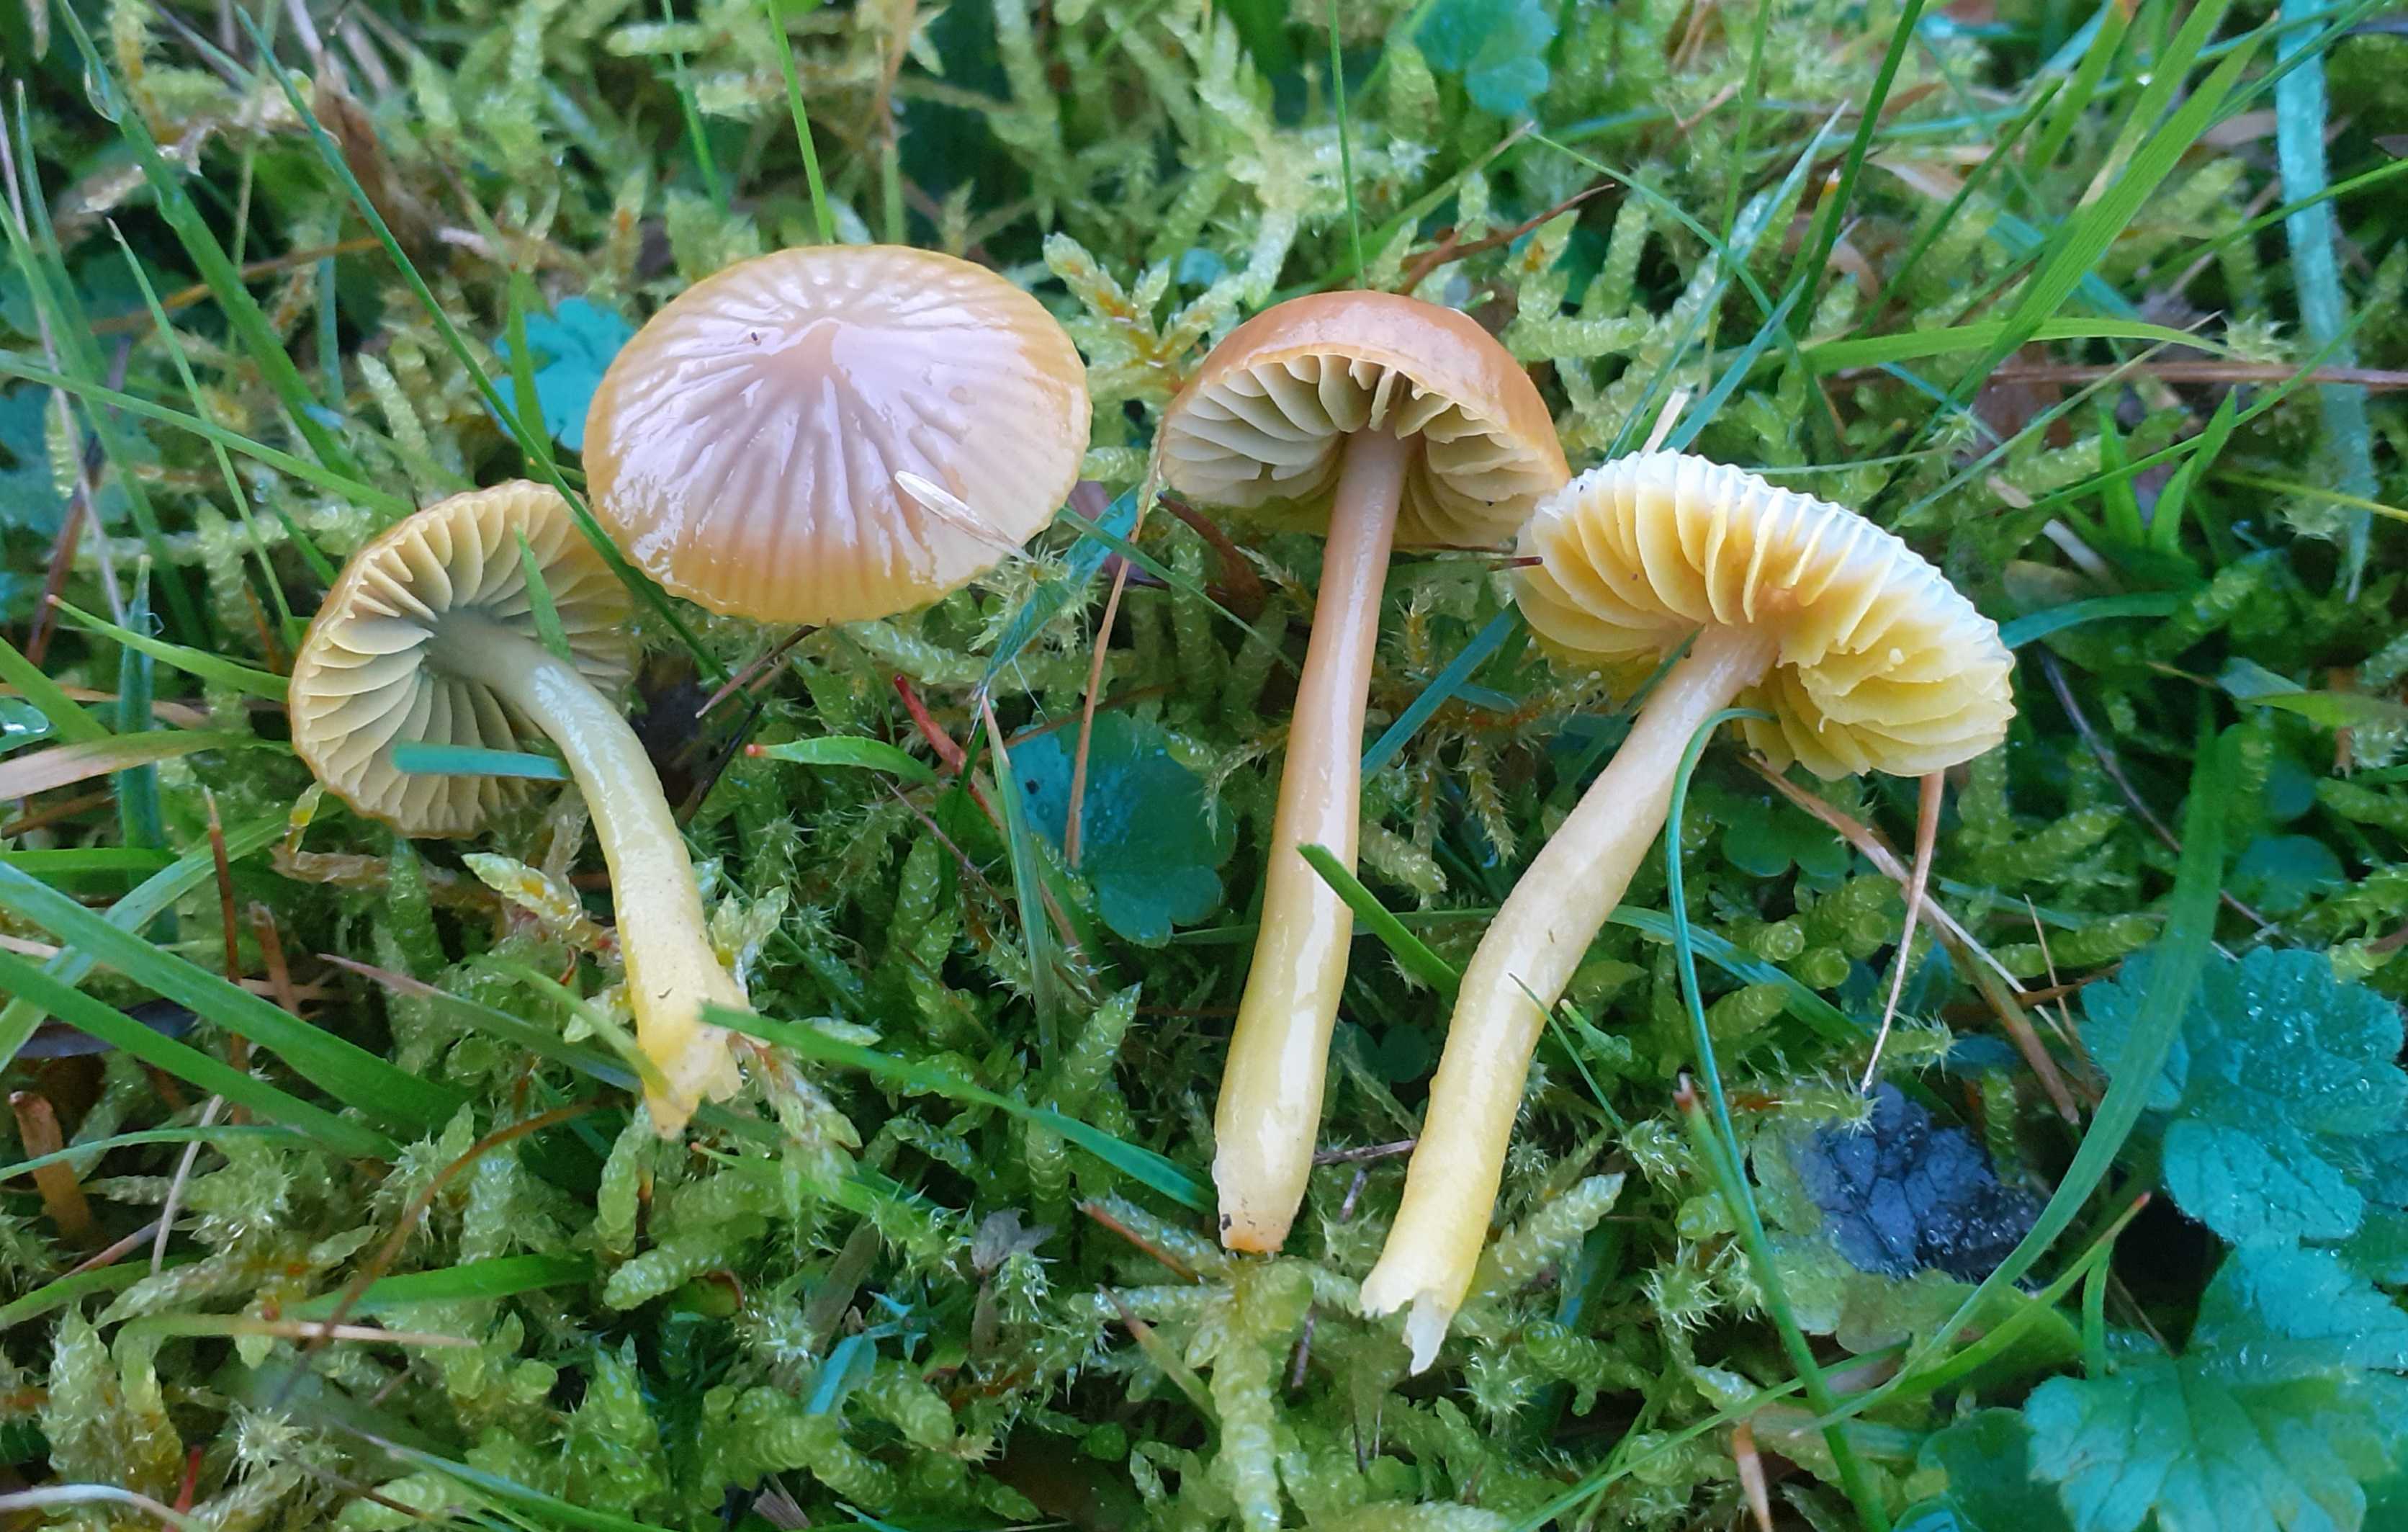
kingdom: Fungi
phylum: Basidiomycota
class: Agaricomycetes
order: Agaricales
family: Hygrophoraceae
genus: Gliophorus
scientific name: Gliophorus psittacinus
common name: papegøje-vokshat
